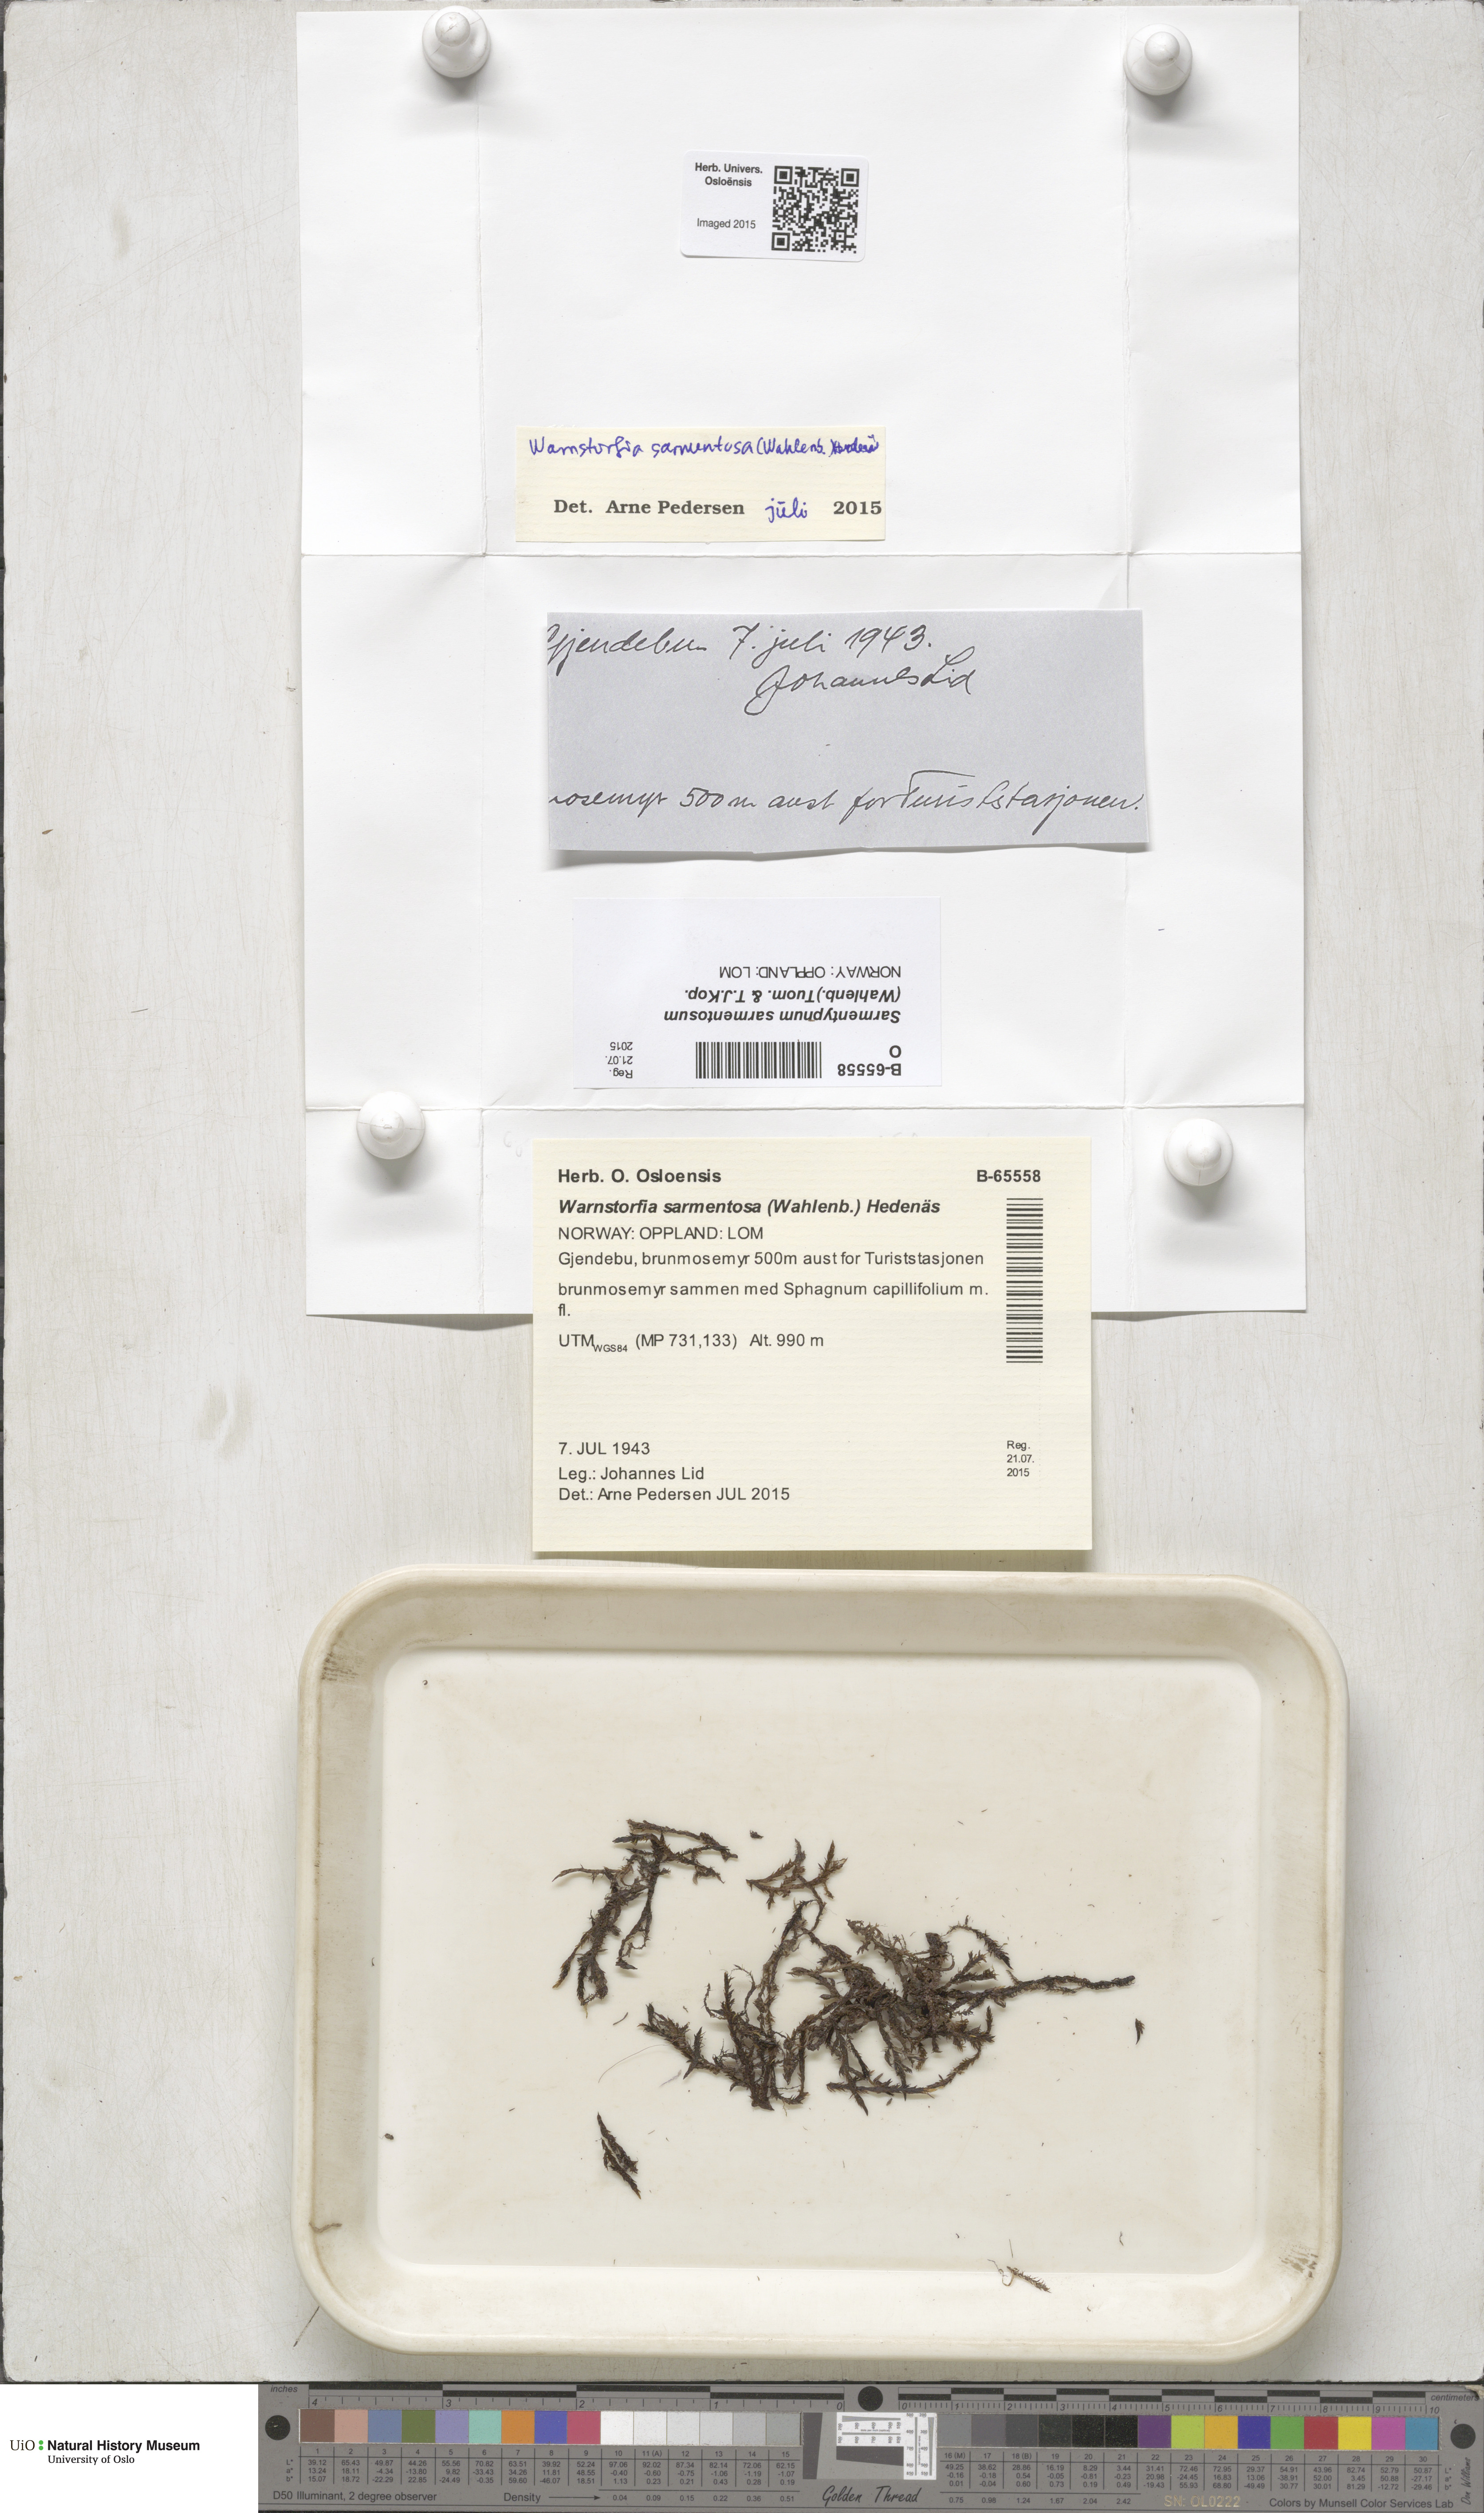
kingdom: Plantae
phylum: Bryophyta
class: Bryopsida
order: Hypnales
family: Calliergonaceae
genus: Sarmentypnum
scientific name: Sarmentypnum sarmentosum
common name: Twiggy spoon moss
